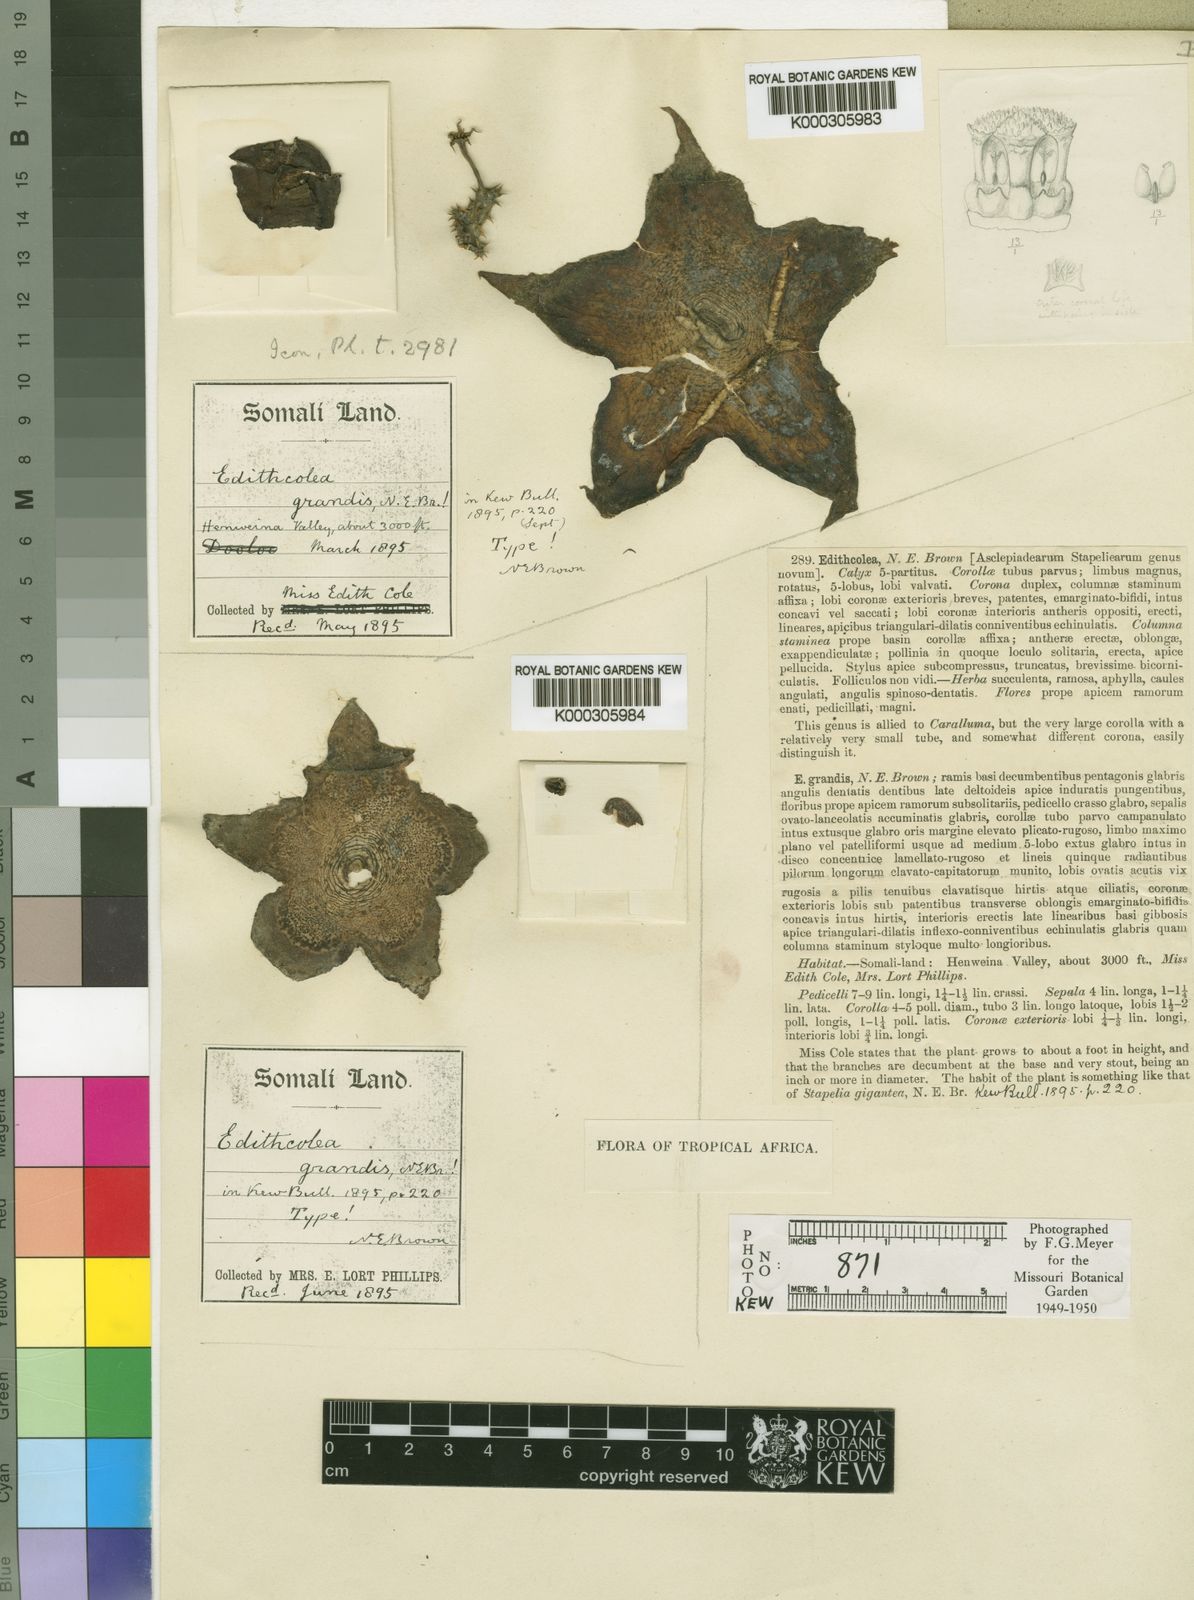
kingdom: Plantae
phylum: Tracheophyta
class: Magnoliopsida
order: Gentianales
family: Apocynaceae
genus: Ceropegia
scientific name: Ceropegia sordida
